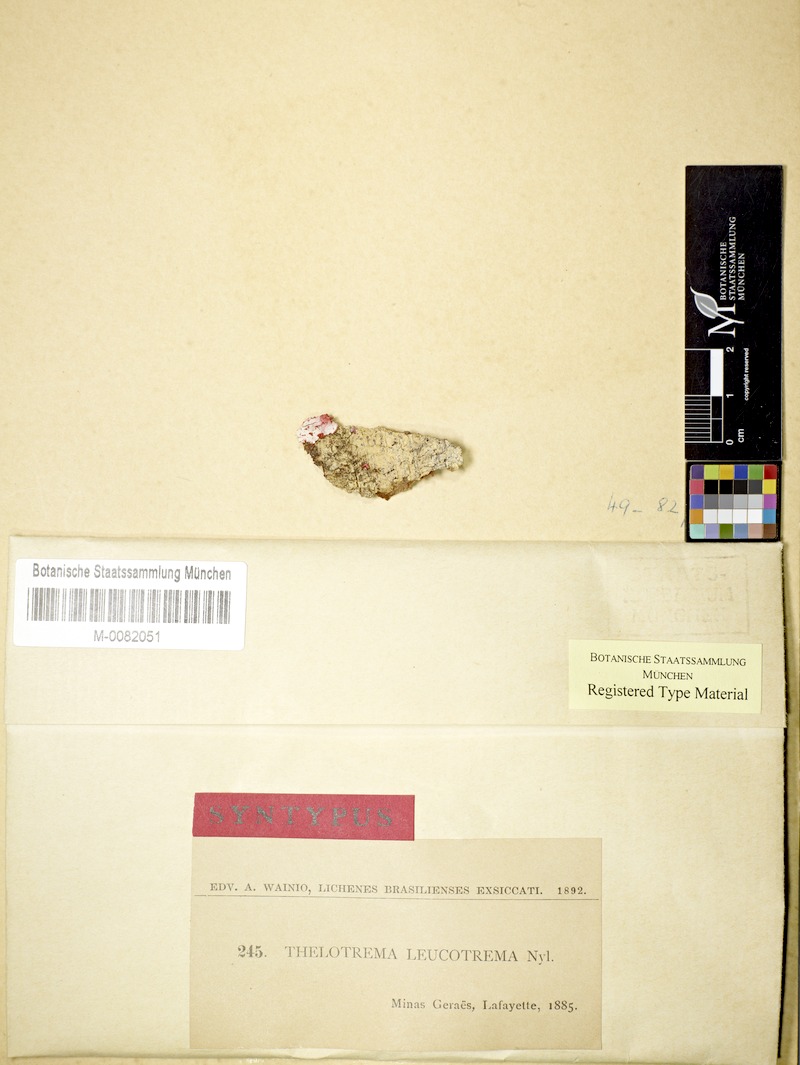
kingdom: Fungi
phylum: Ascomycota
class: Lecanoromycetes
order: Ostropales
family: Graphidaceae
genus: Ocellularia
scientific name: Ocellularia leucotrema
